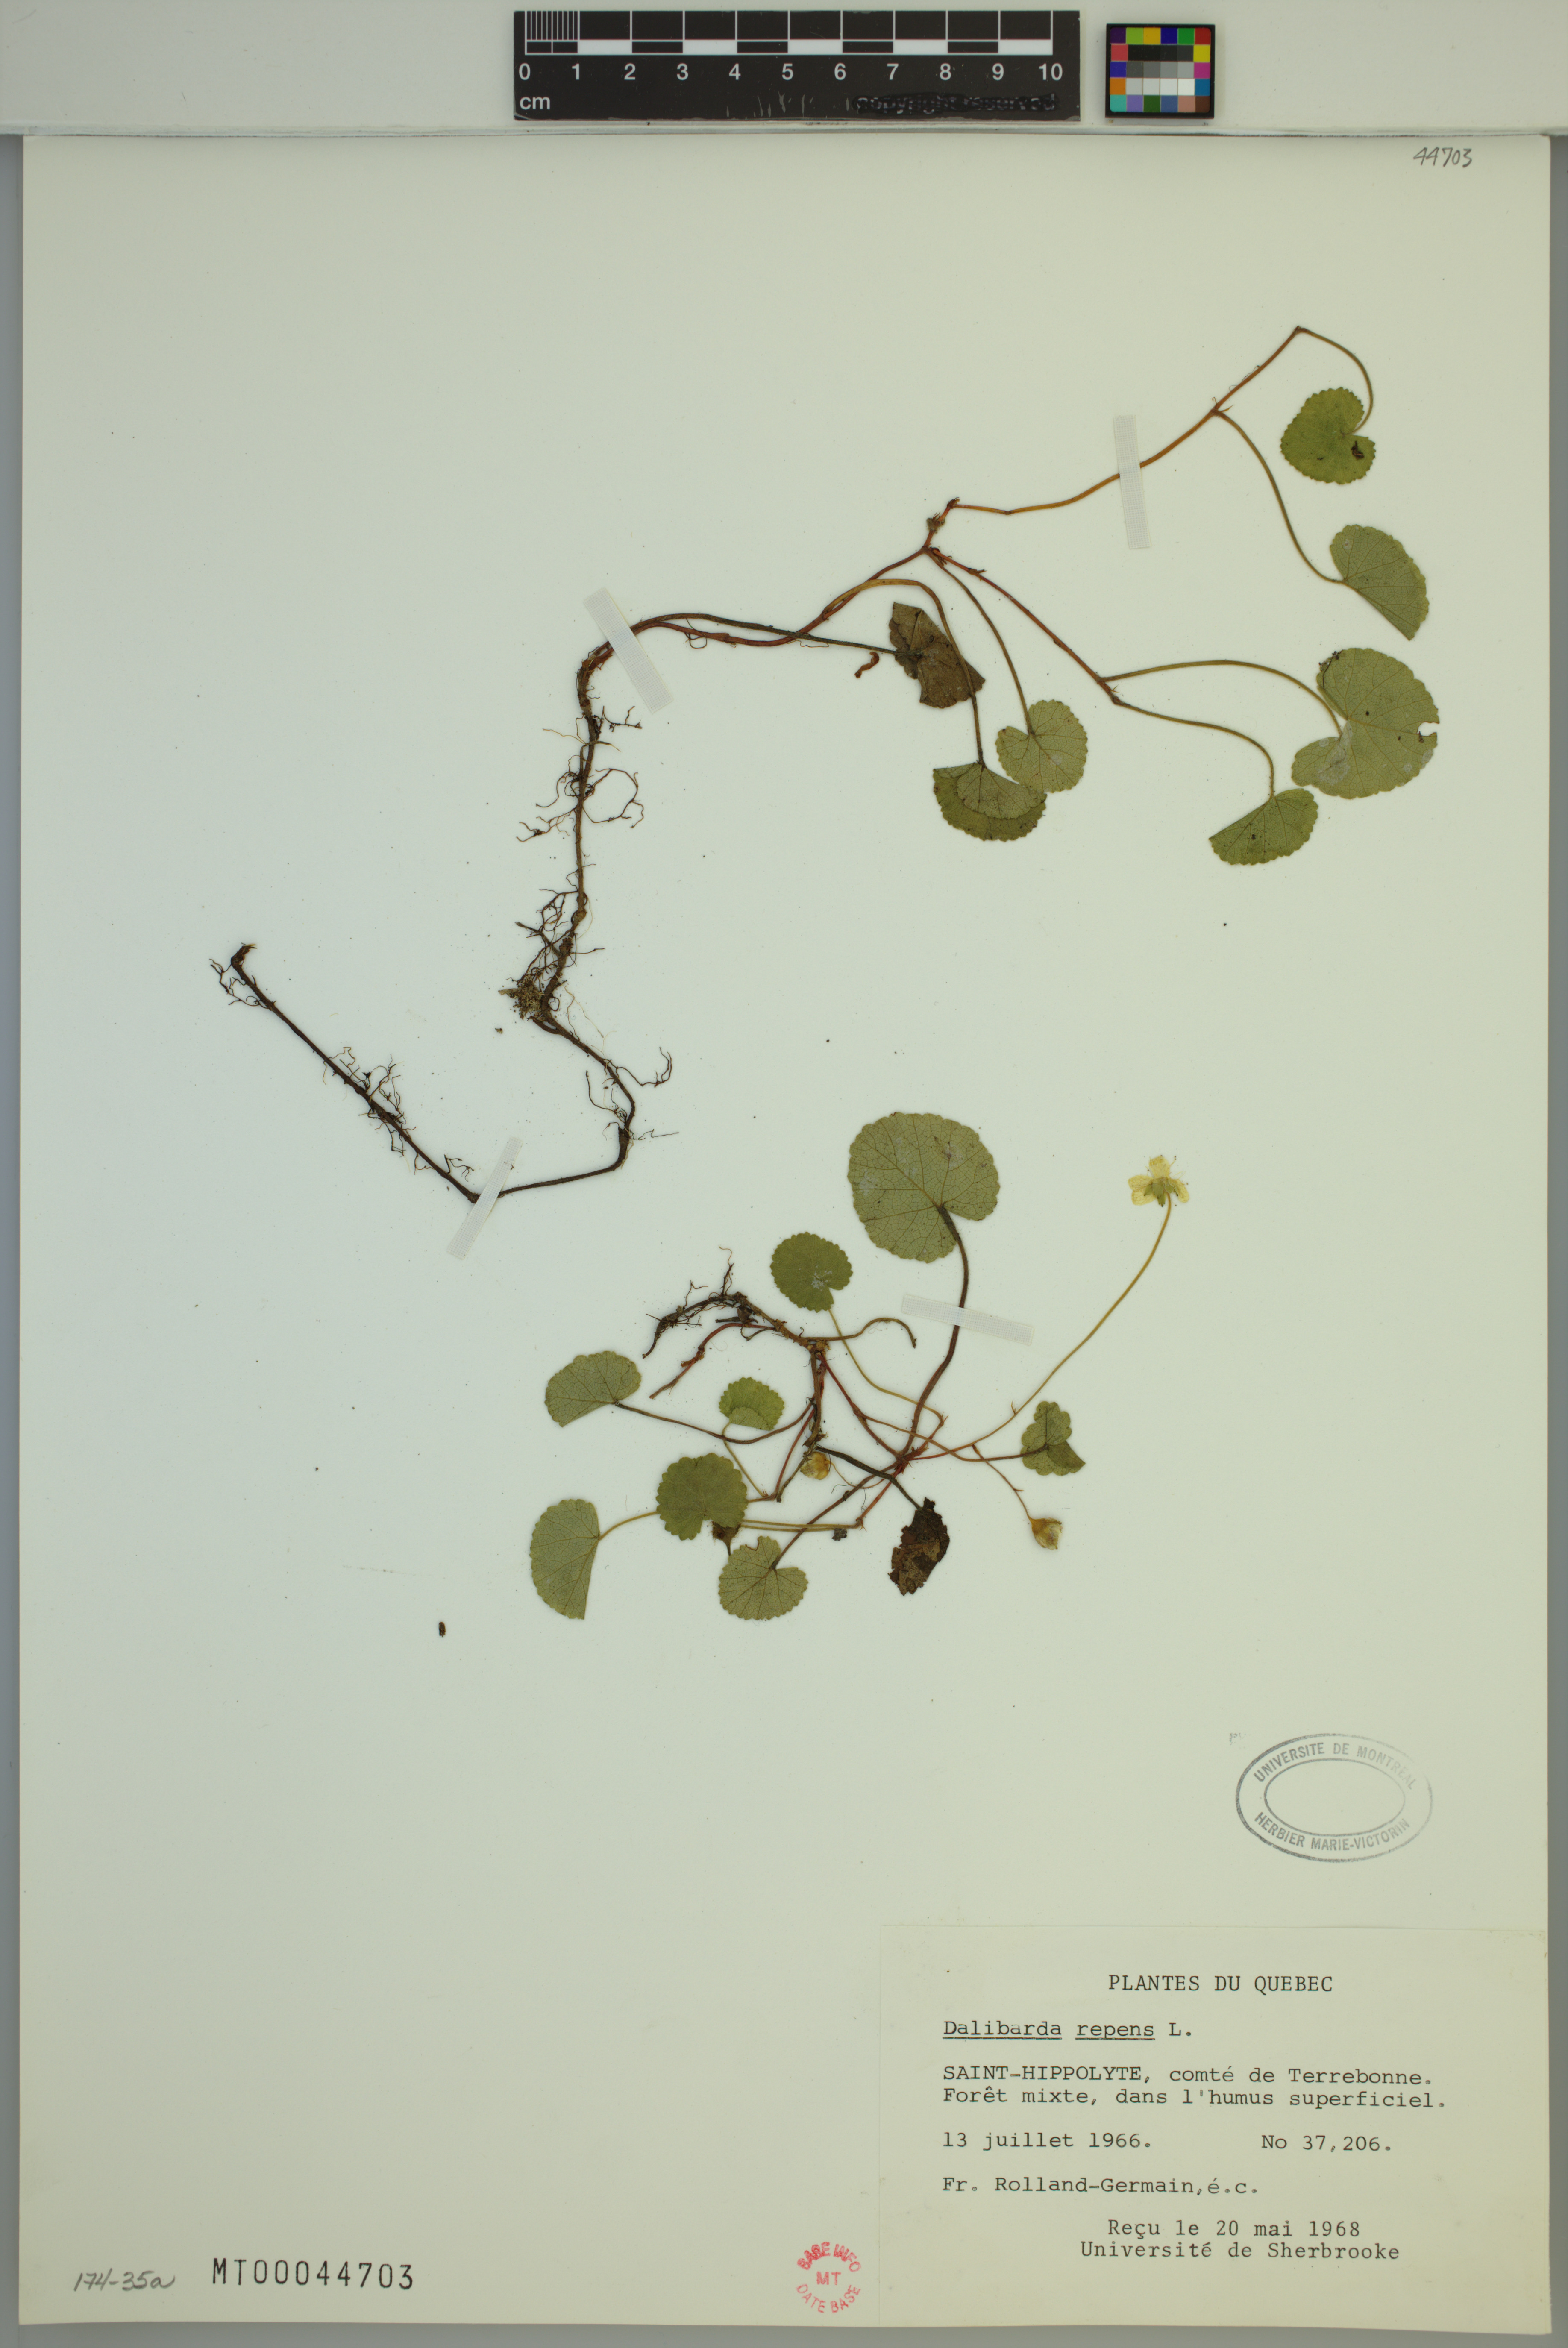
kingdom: Plantae
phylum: Tracheophyta
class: Magnoliopsida
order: Rosales
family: Rosaceae
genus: Dalibarda
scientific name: Dalibarda repens
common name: Dewdrop
